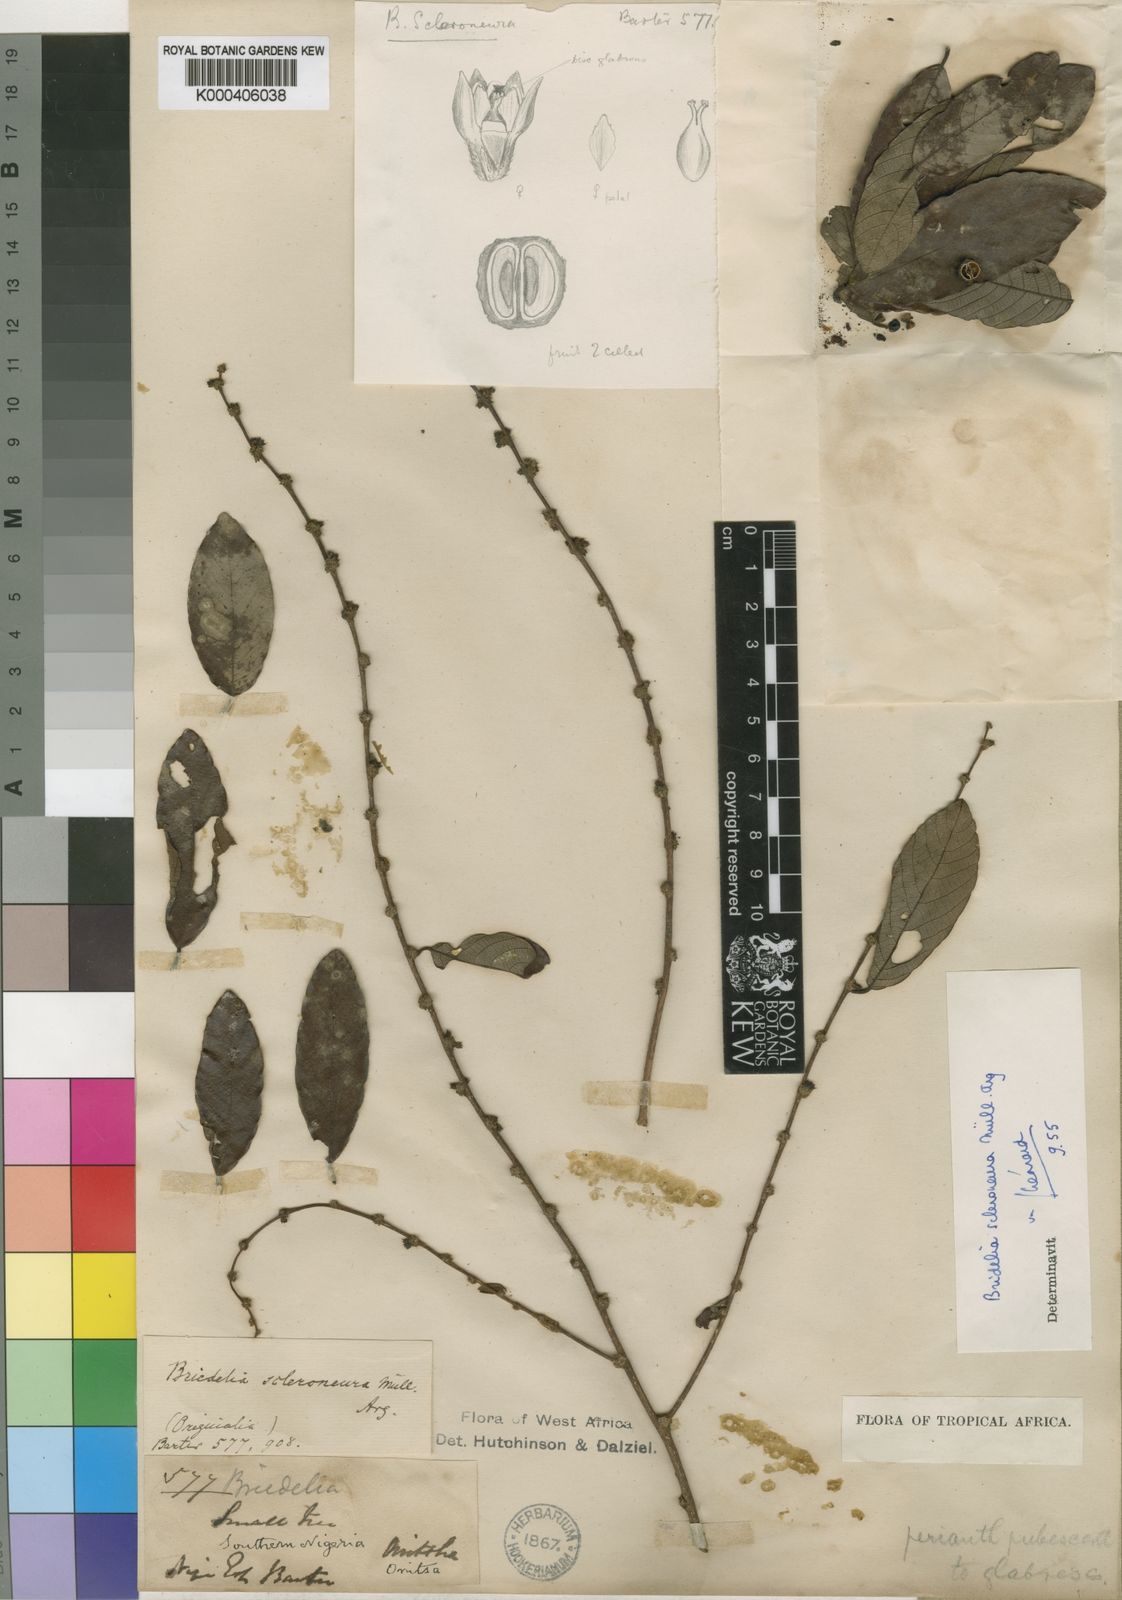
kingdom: Plantae
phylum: Tracheophyta
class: Magnoliopsida
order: Malpighiales
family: Phyllanthaceae
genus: Bridelia
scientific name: Bridelia
